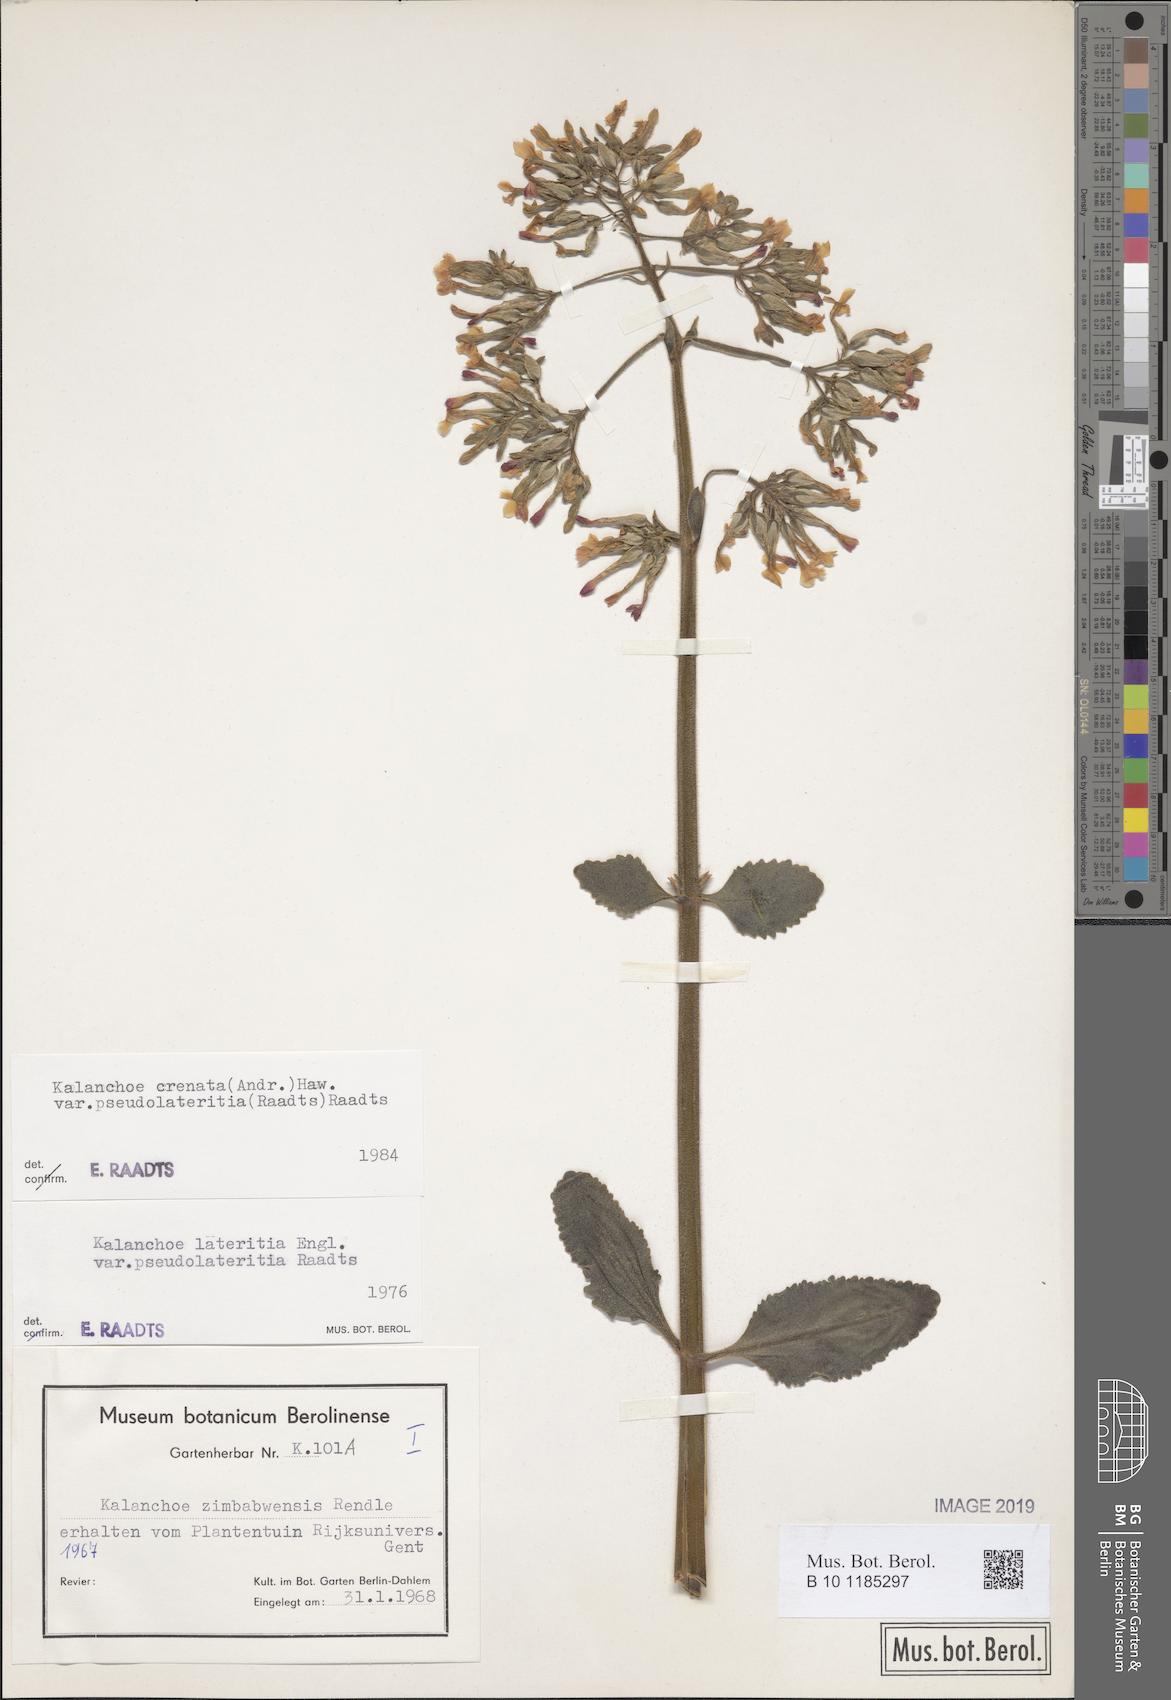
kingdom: Plantae
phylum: Tracheophyta
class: Magnoliopsida
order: Saxifragales
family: Crassulaceae
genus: Kalanchoe
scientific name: Kalanchoe lateritia
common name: Kalanchoe
